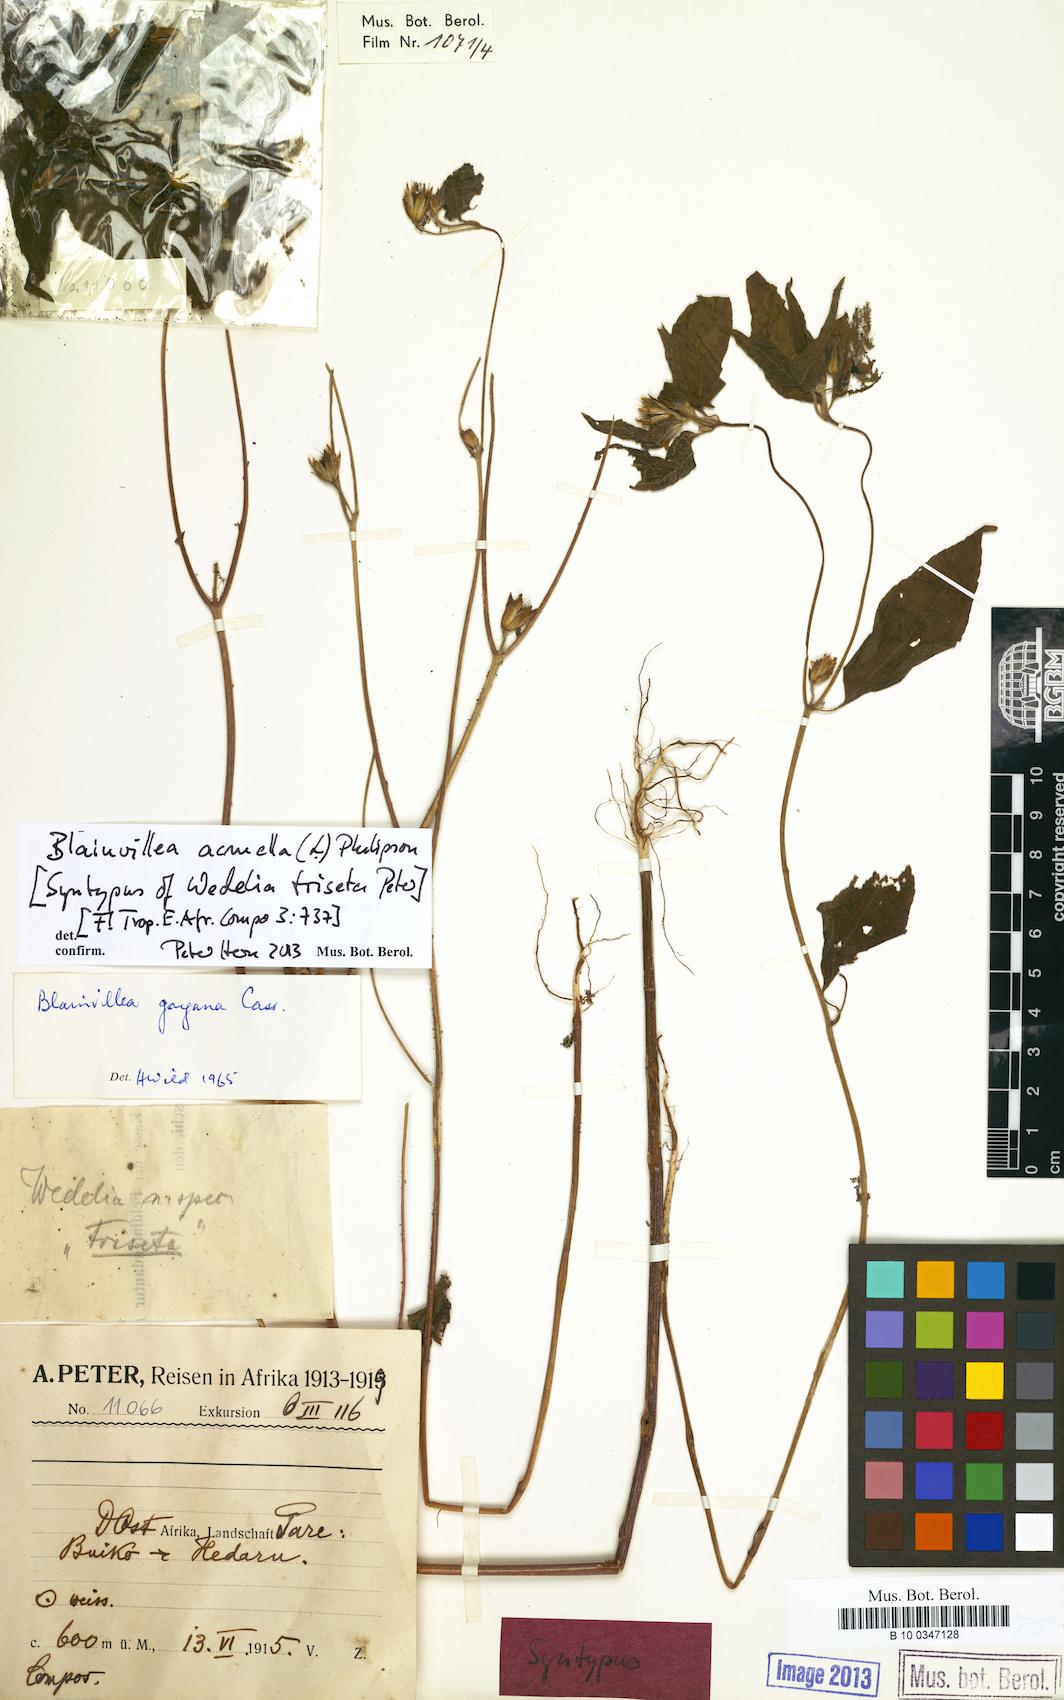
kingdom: Plantae
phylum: Tracheophyta
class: Magnoliopsida
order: Asterales
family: Asteraceae
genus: Blainvillea
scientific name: Blainvillea acmella
